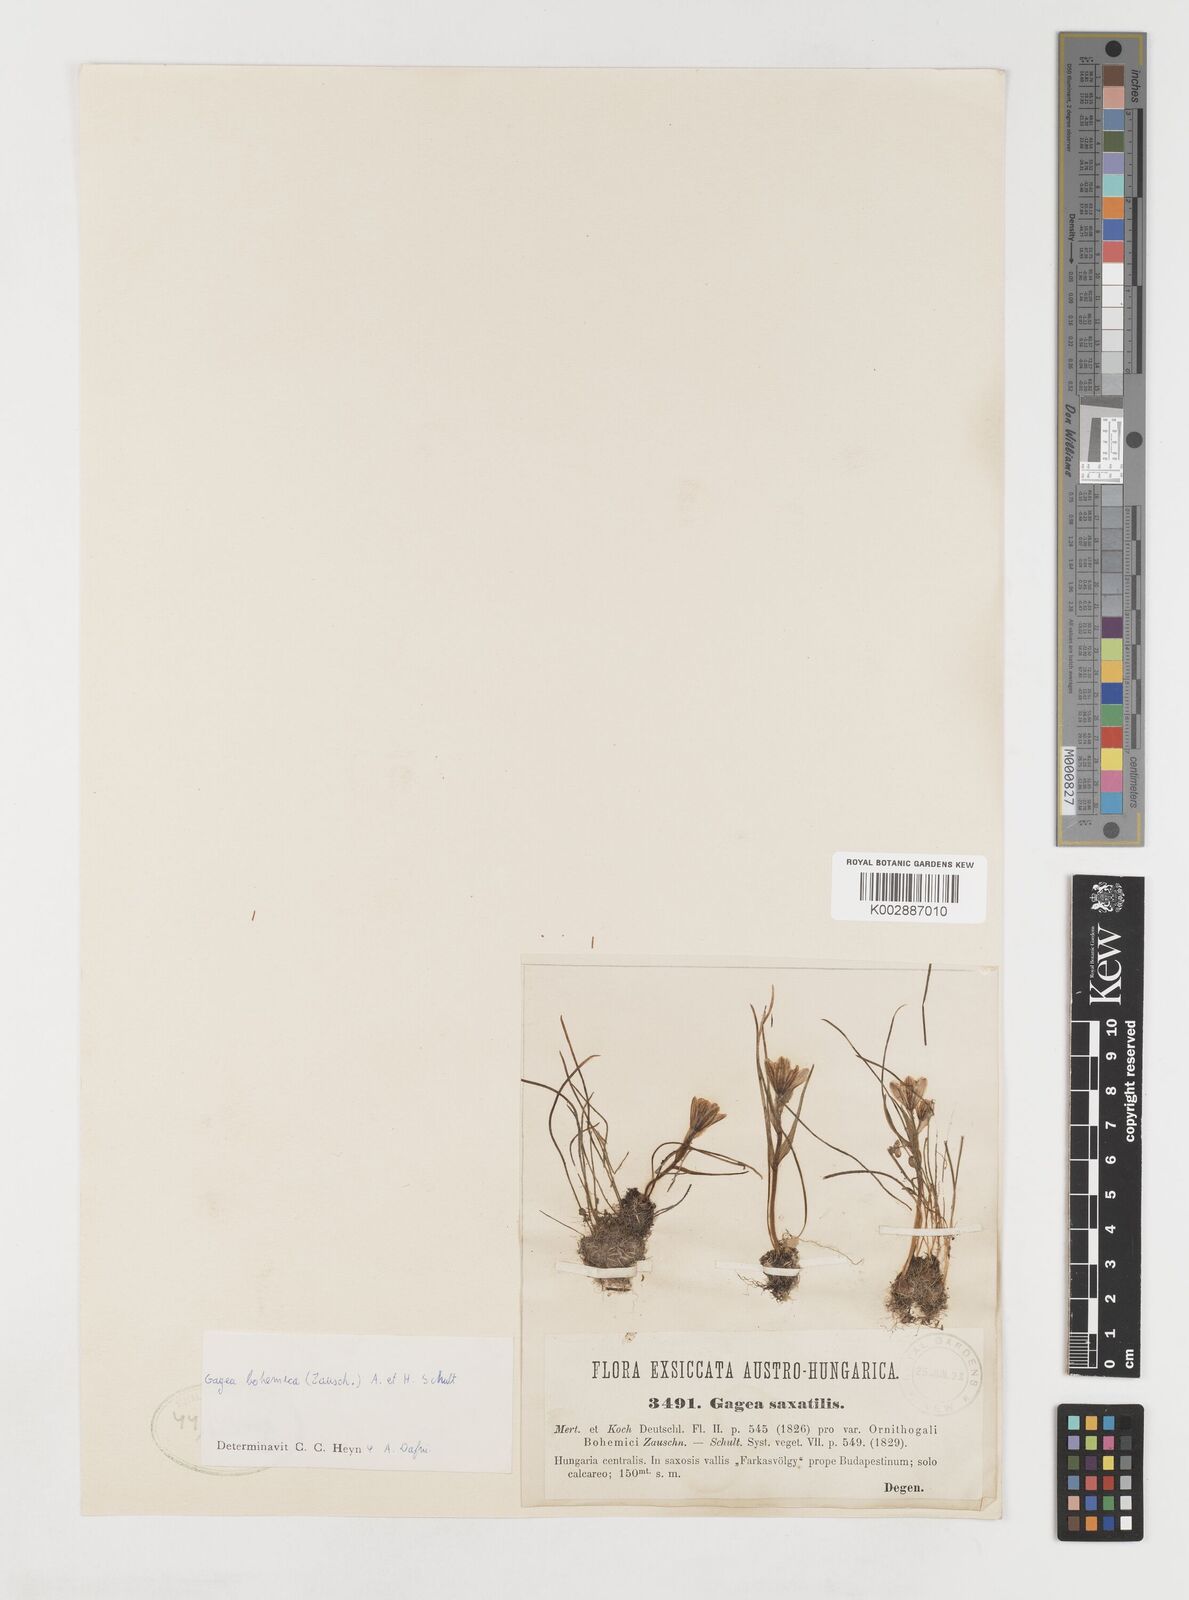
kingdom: Plantae
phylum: Tracheophyta
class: Liliopsida
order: Liliales
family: Liliaceae
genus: Gagea
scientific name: Gagea bohemica
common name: Early star-of-bethlehem
